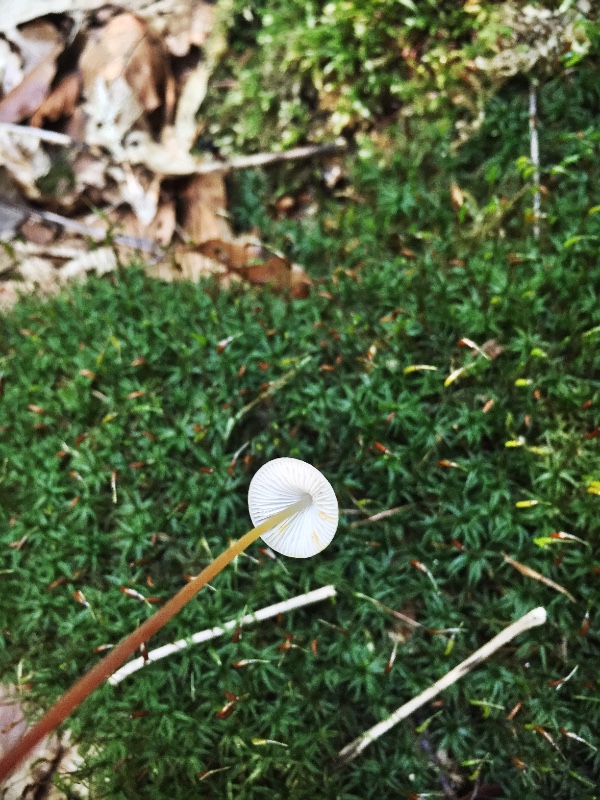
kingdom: Fungi
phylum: Basidiomycota
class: Agaricomycetes
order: Agaricales
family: Mycenaceae
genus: Mycena
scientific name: Mycena crocata
